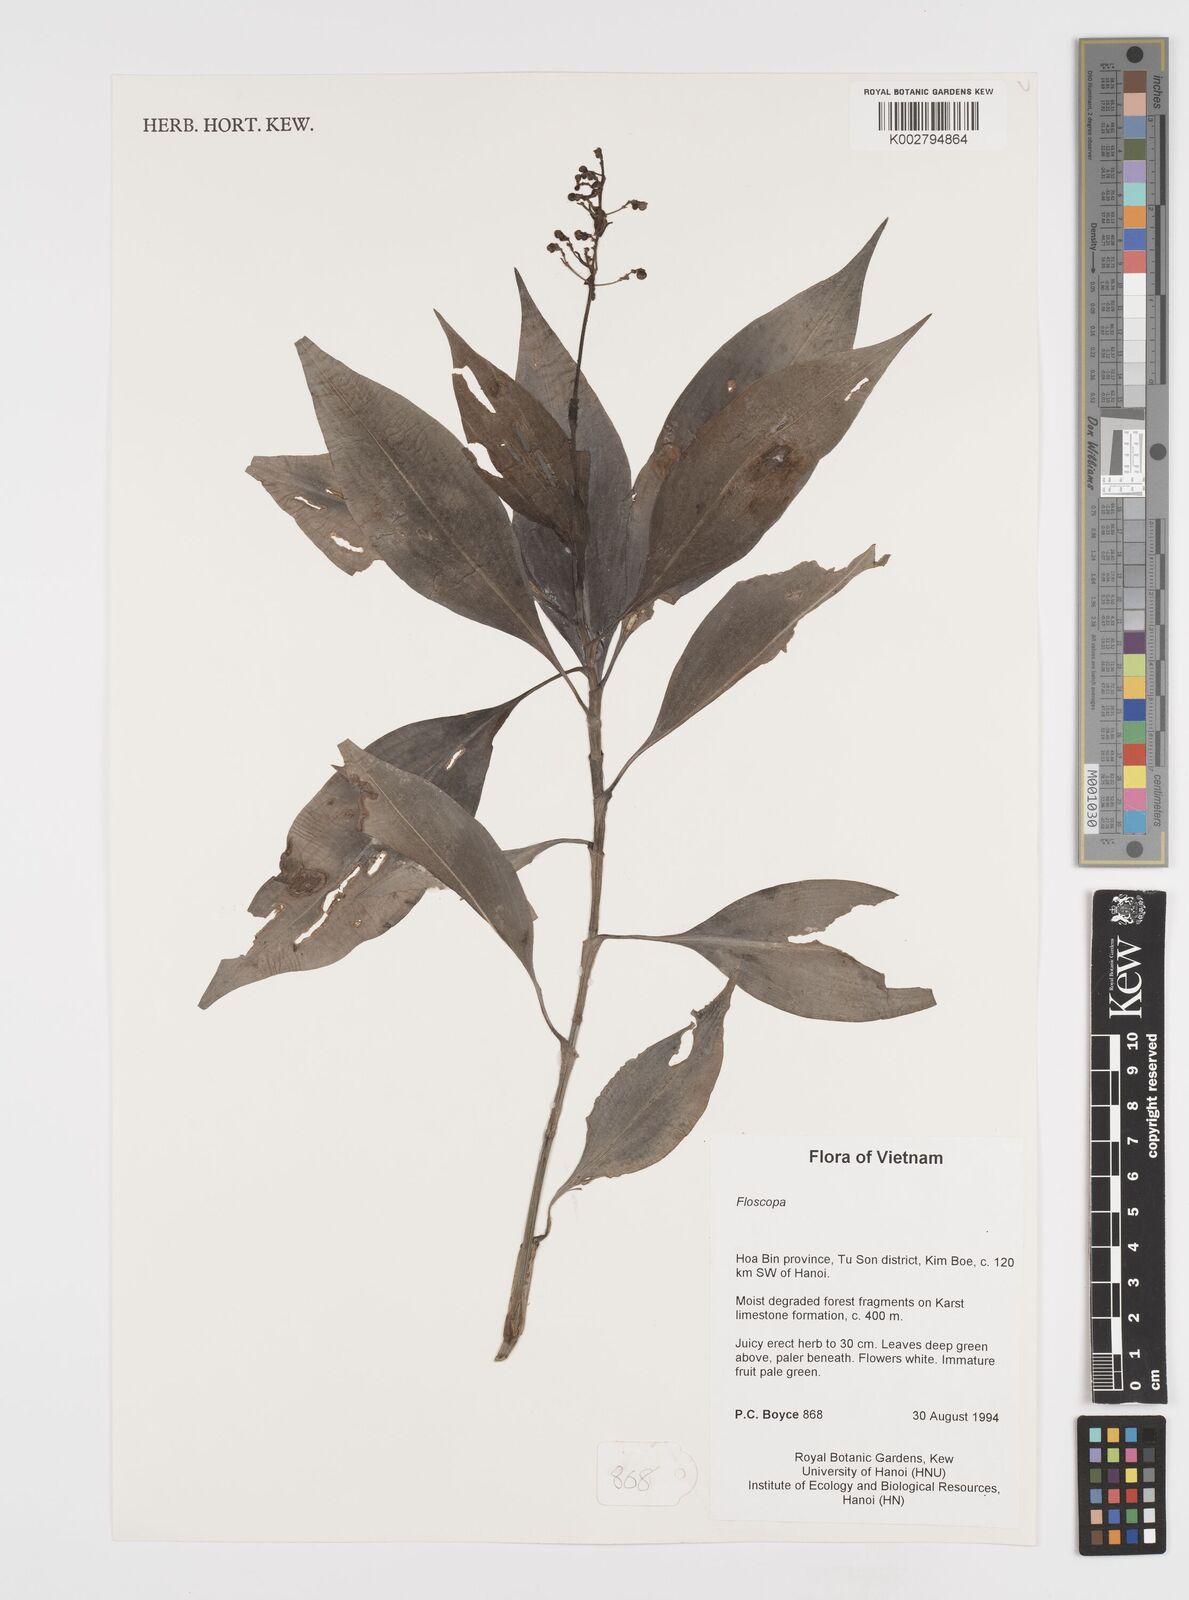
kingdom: Plantae
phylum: Tracheophyta
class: Liliopsida
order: Commelinales
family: Commelinaceae
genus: Floscopa
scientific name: Floscopa
